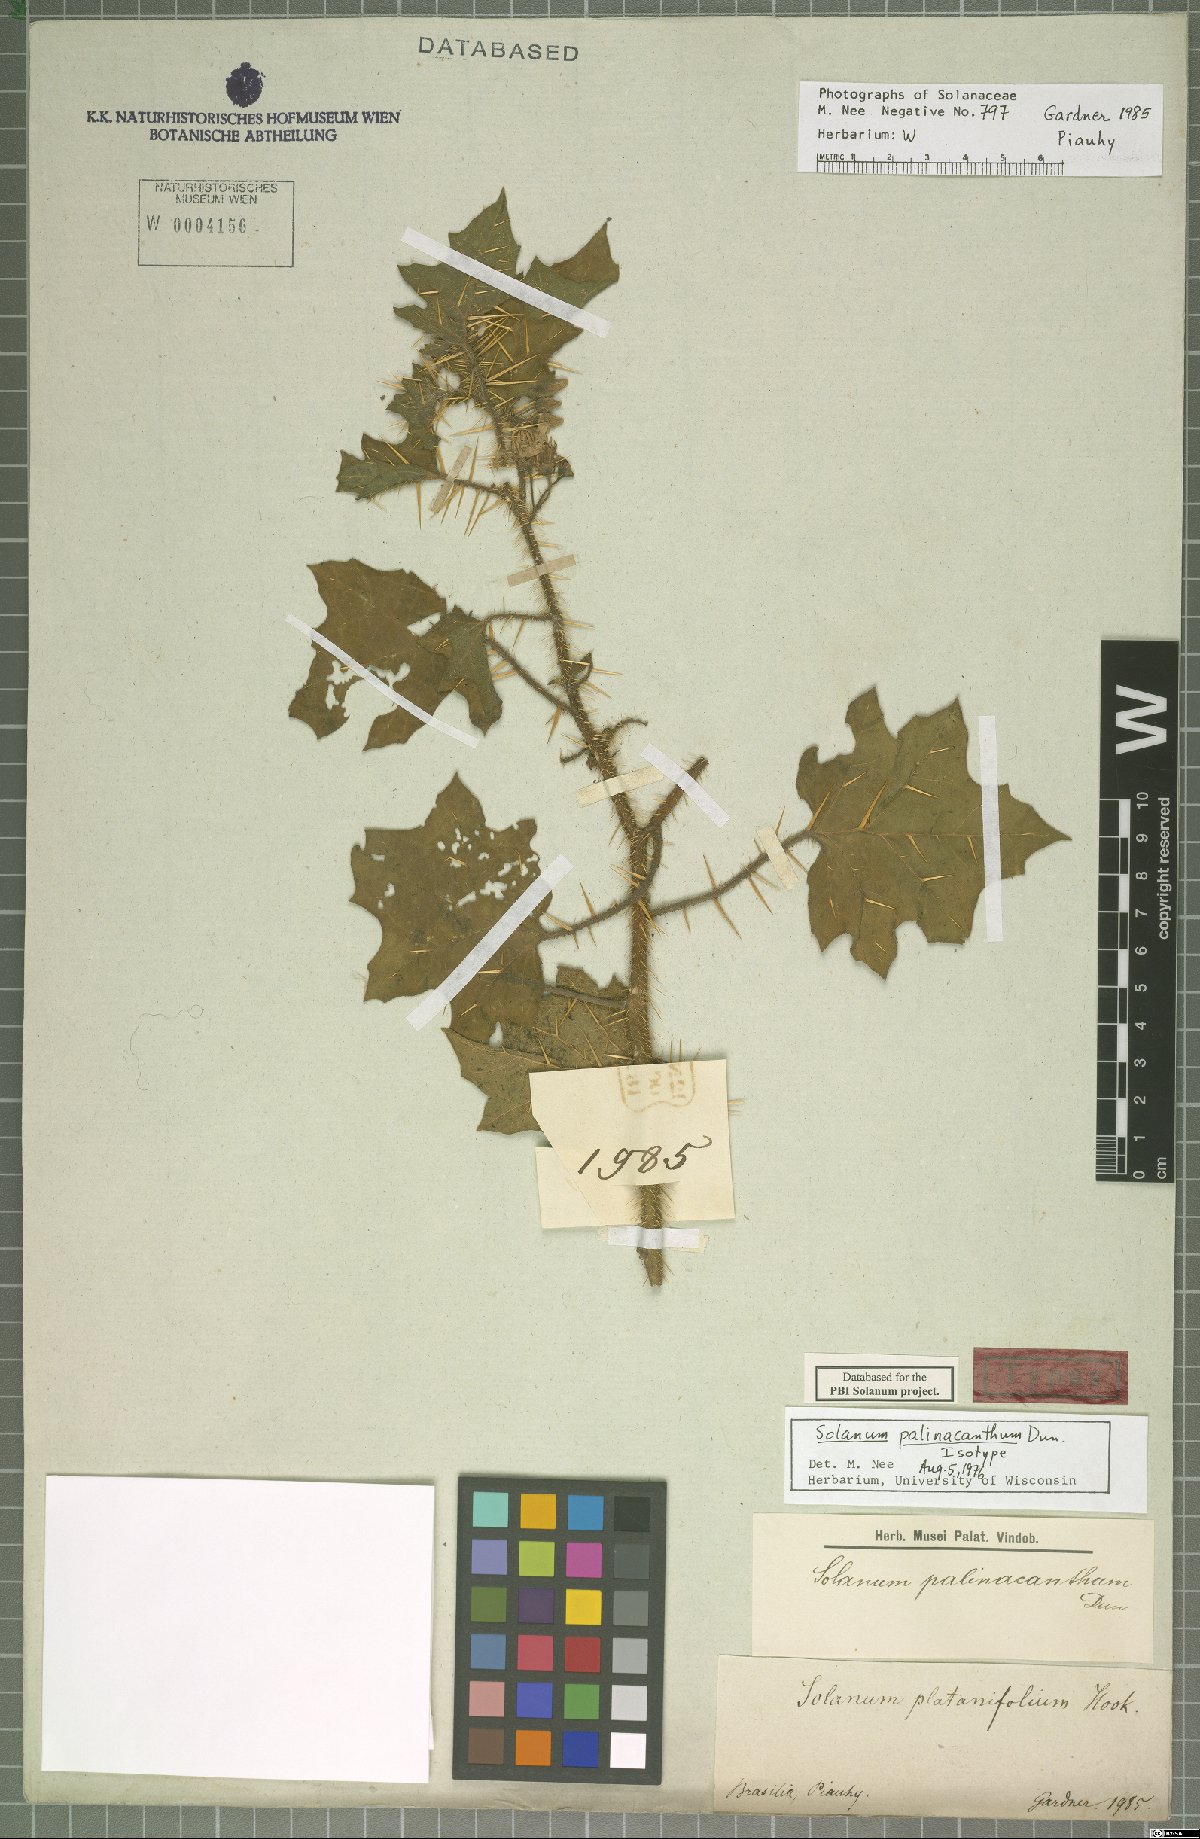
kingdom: Plantae
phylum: Tracheophyta
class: Magnoliopsida
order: Solanales
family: Solanaceae
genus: Solanum
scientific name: Solanum palinacanthum
